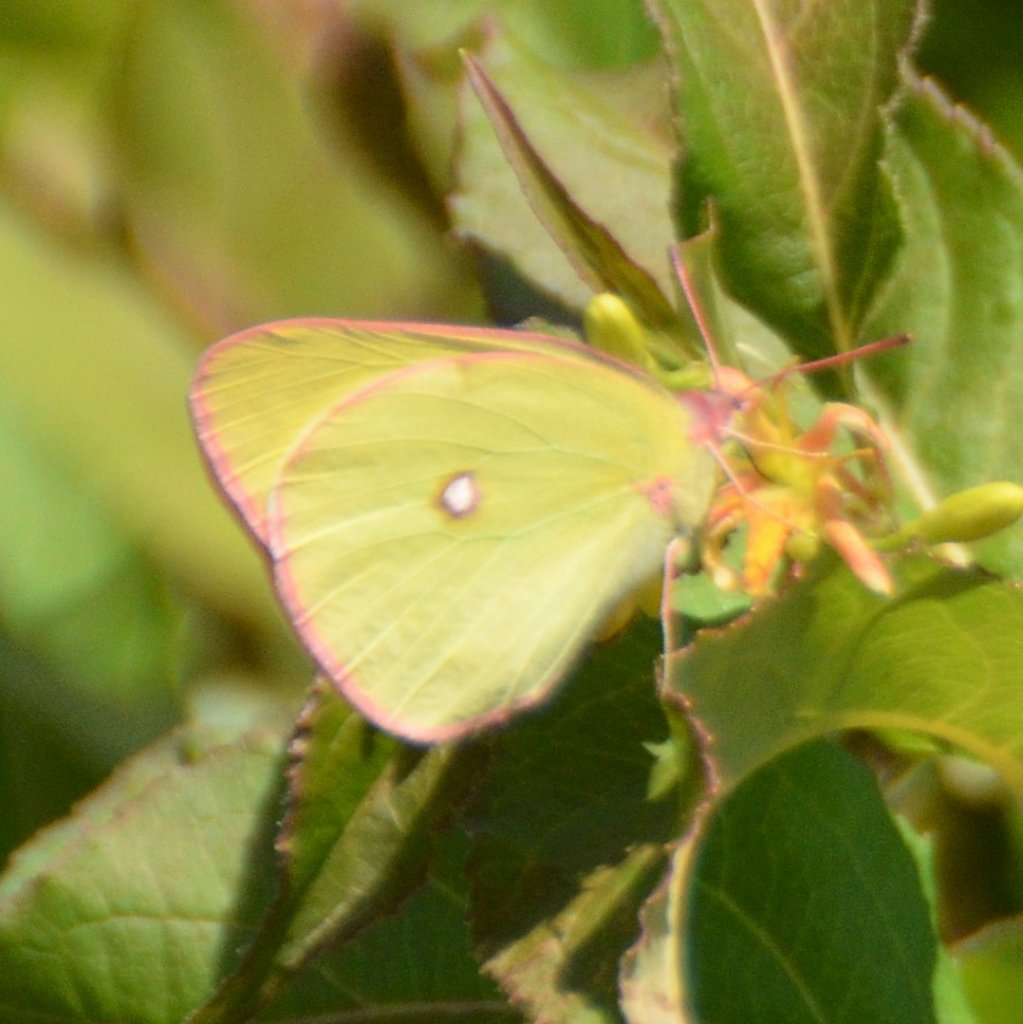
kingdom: Animalia
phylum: Arthropoda
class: Insecta
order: Lepidoptera
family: Pieridae
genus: Colias
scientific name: Colias interior
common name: Pink-edged Sulphur
